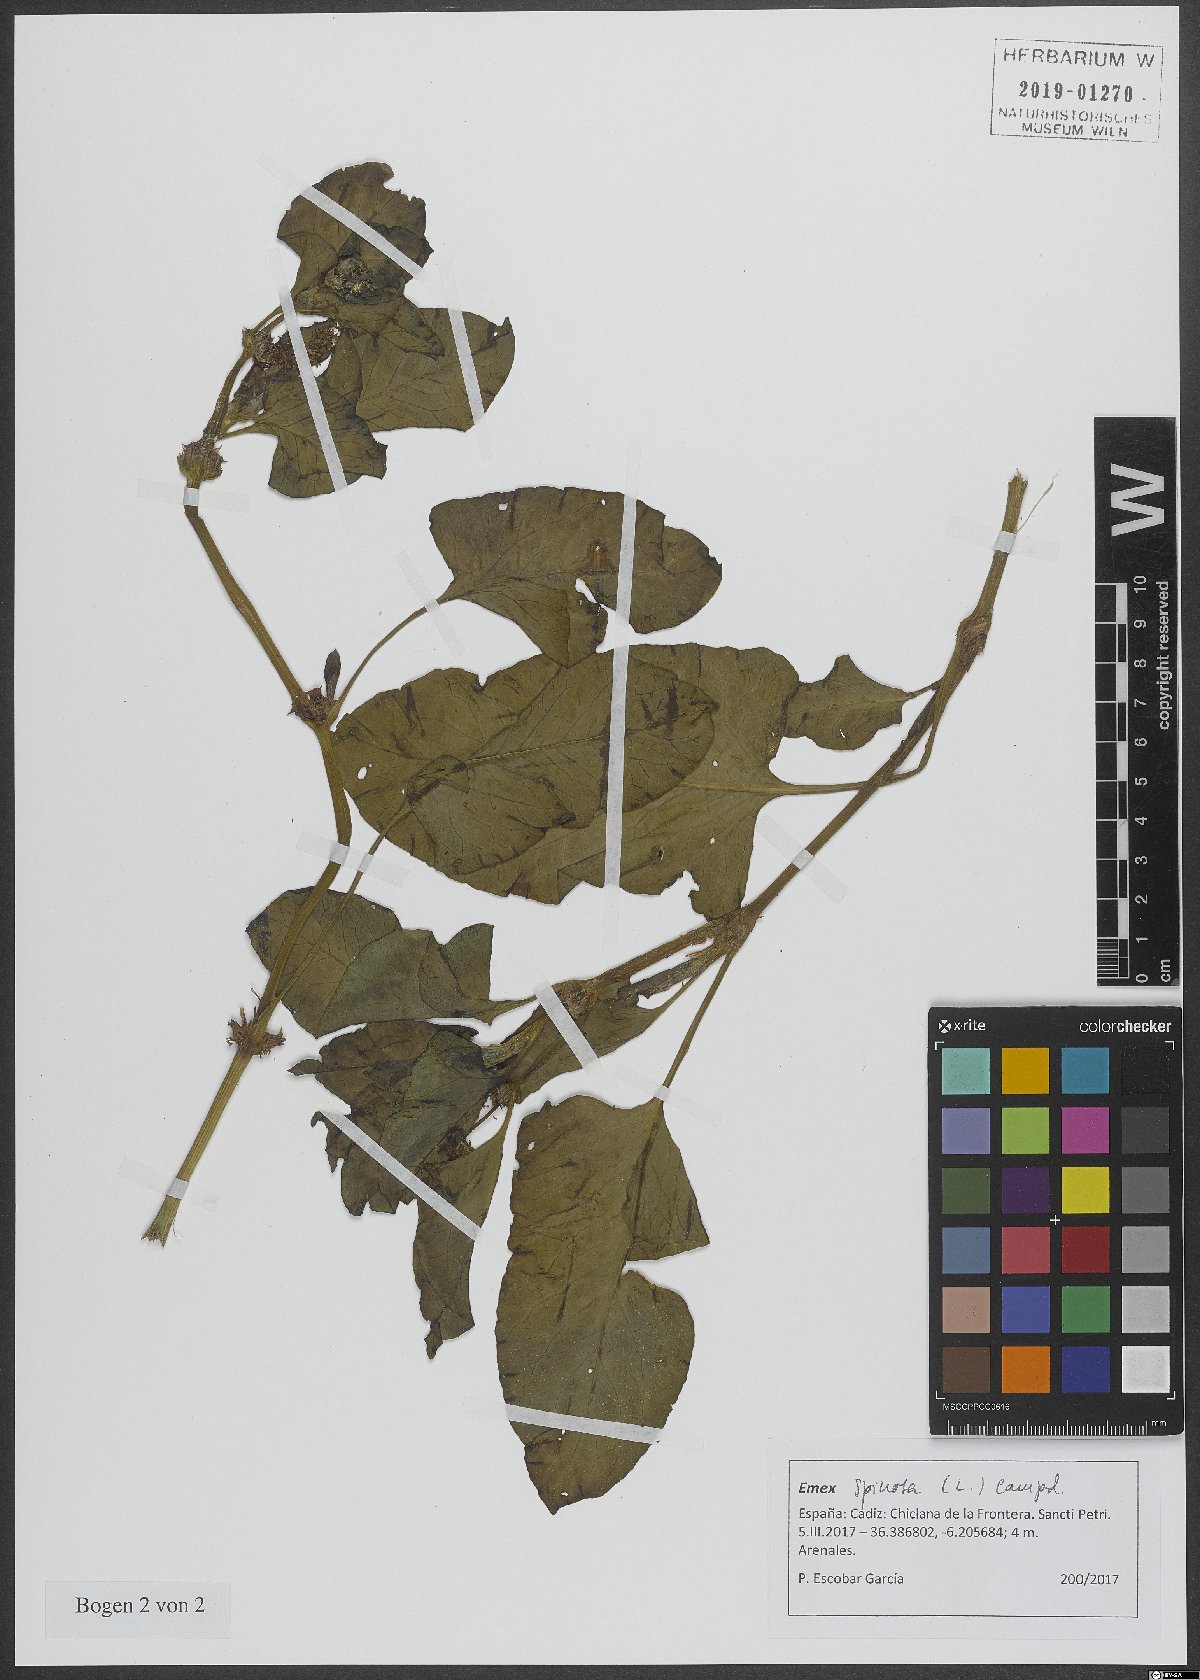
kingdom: Plantae
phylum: Tracheophyta
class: Magnoliopsida
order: Caryophyllales
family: Polygonaceae
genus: Rumex
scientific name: Rumex spinosus
